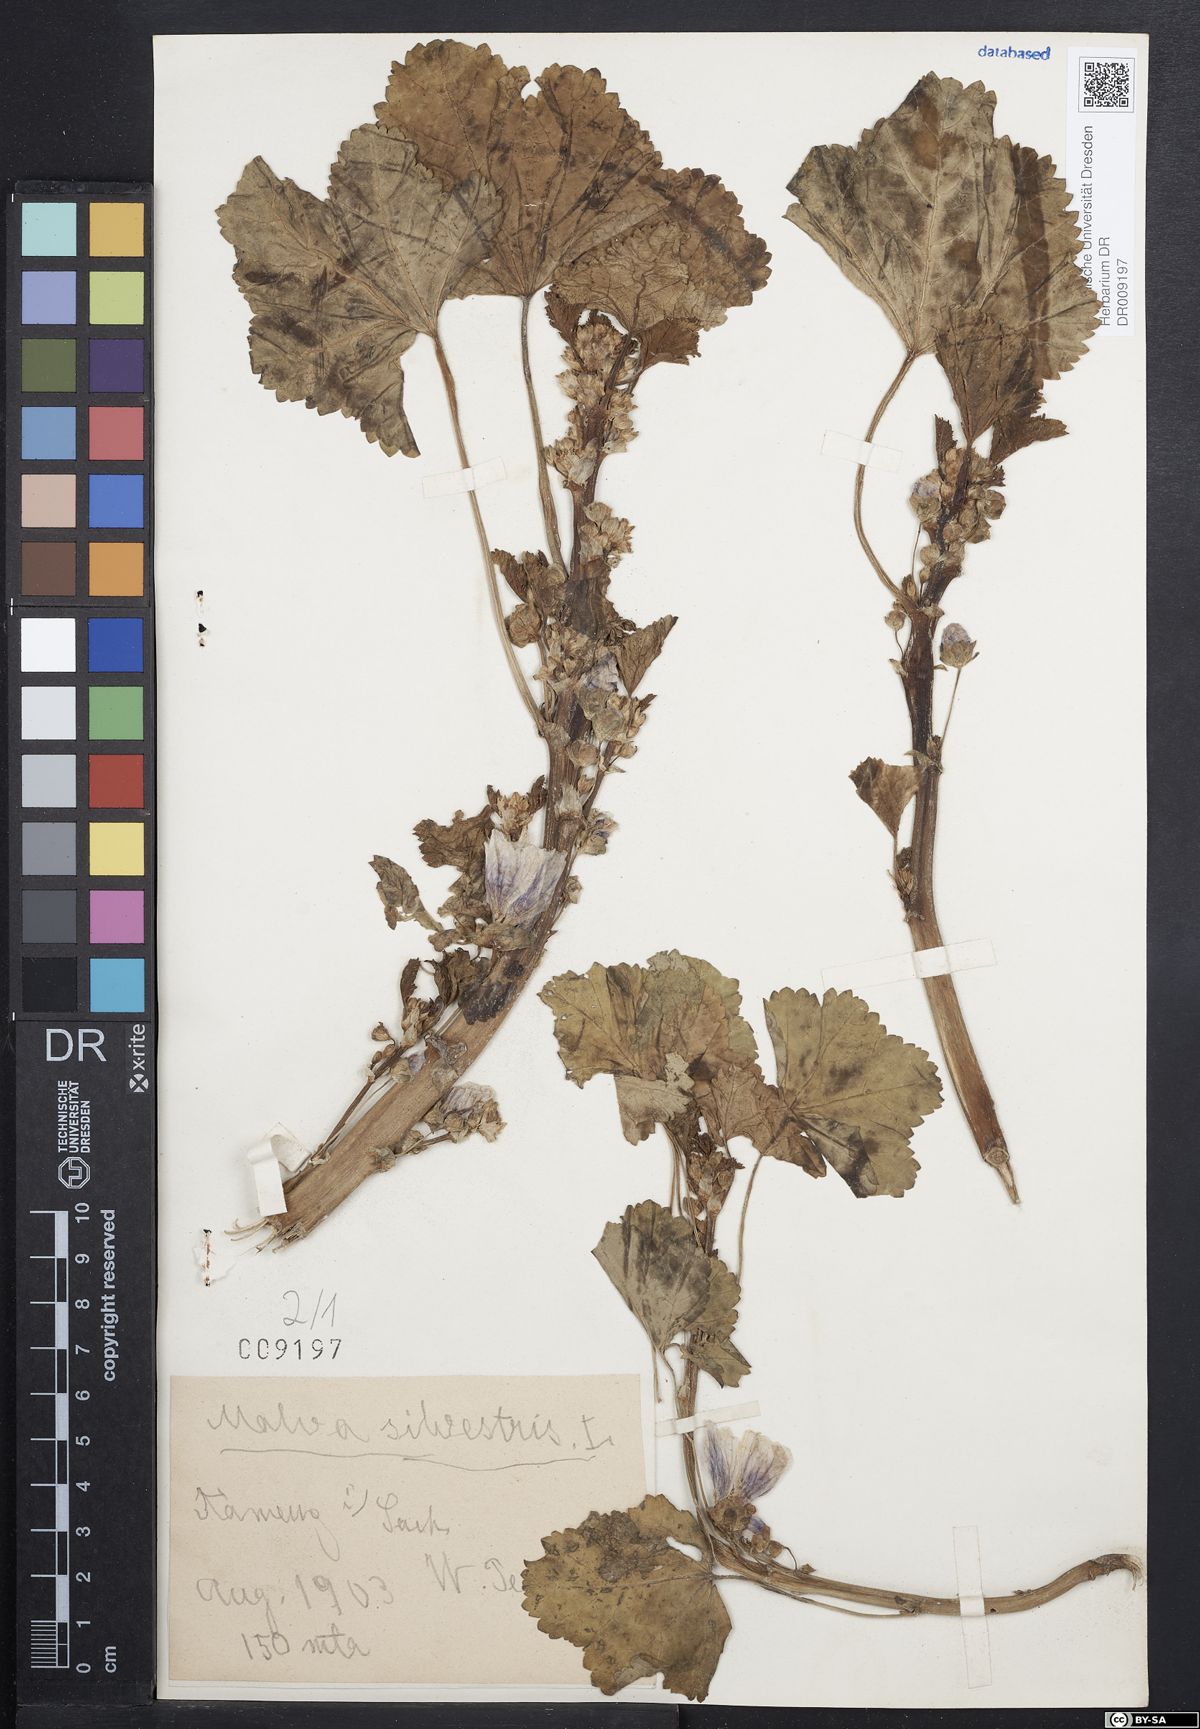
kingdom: Plantae
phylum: Tracheophyta
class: Magnoliopsida
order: Malvales
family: Malvaceae
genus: Malva
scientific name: Malva sylvestris
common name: Common mallow
